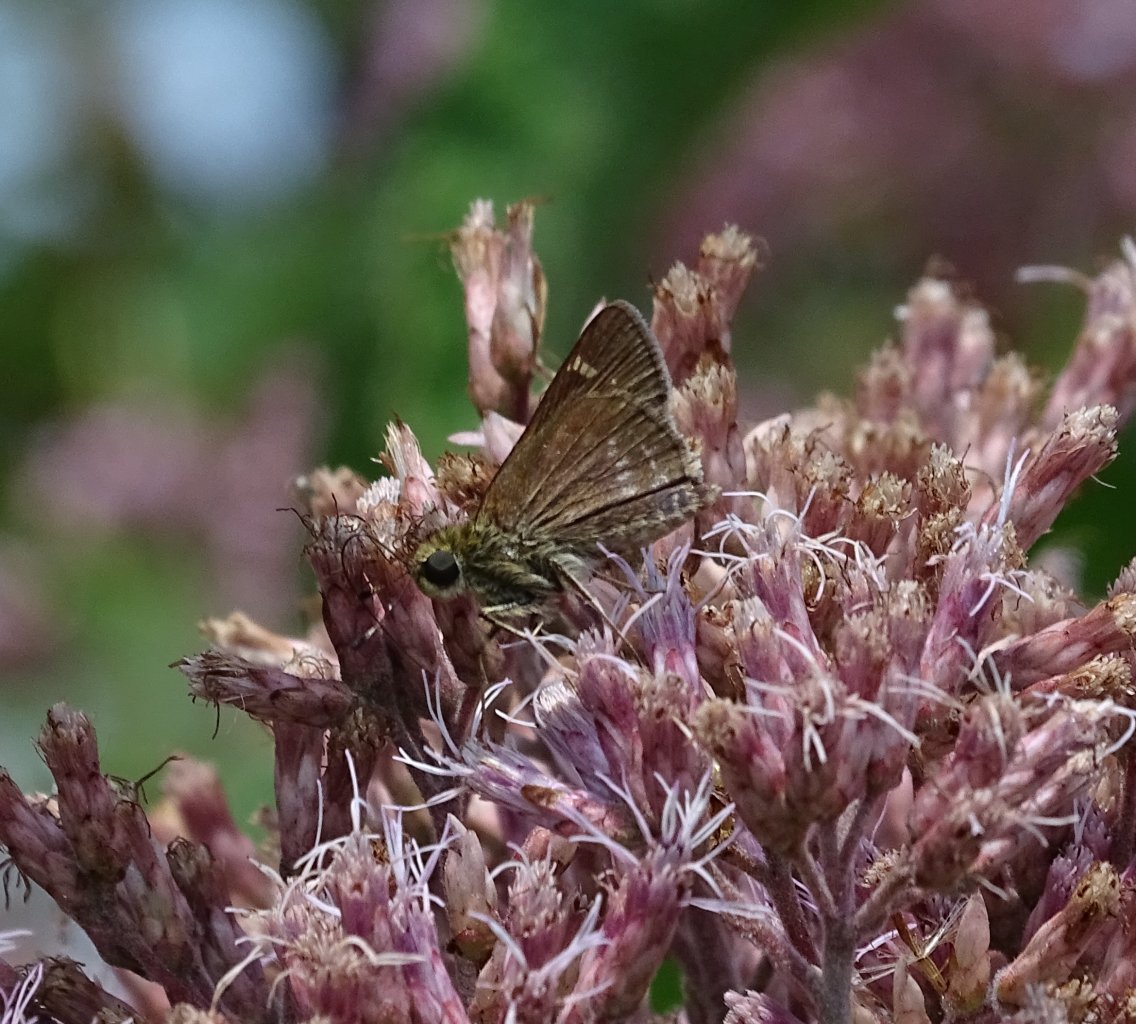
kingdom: Animalia
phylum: Arthropoda
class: Insecta
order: Lepidoptera
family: Hesperiidae
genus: Vernia
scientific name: Vernia verna
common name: Little Glassywing
